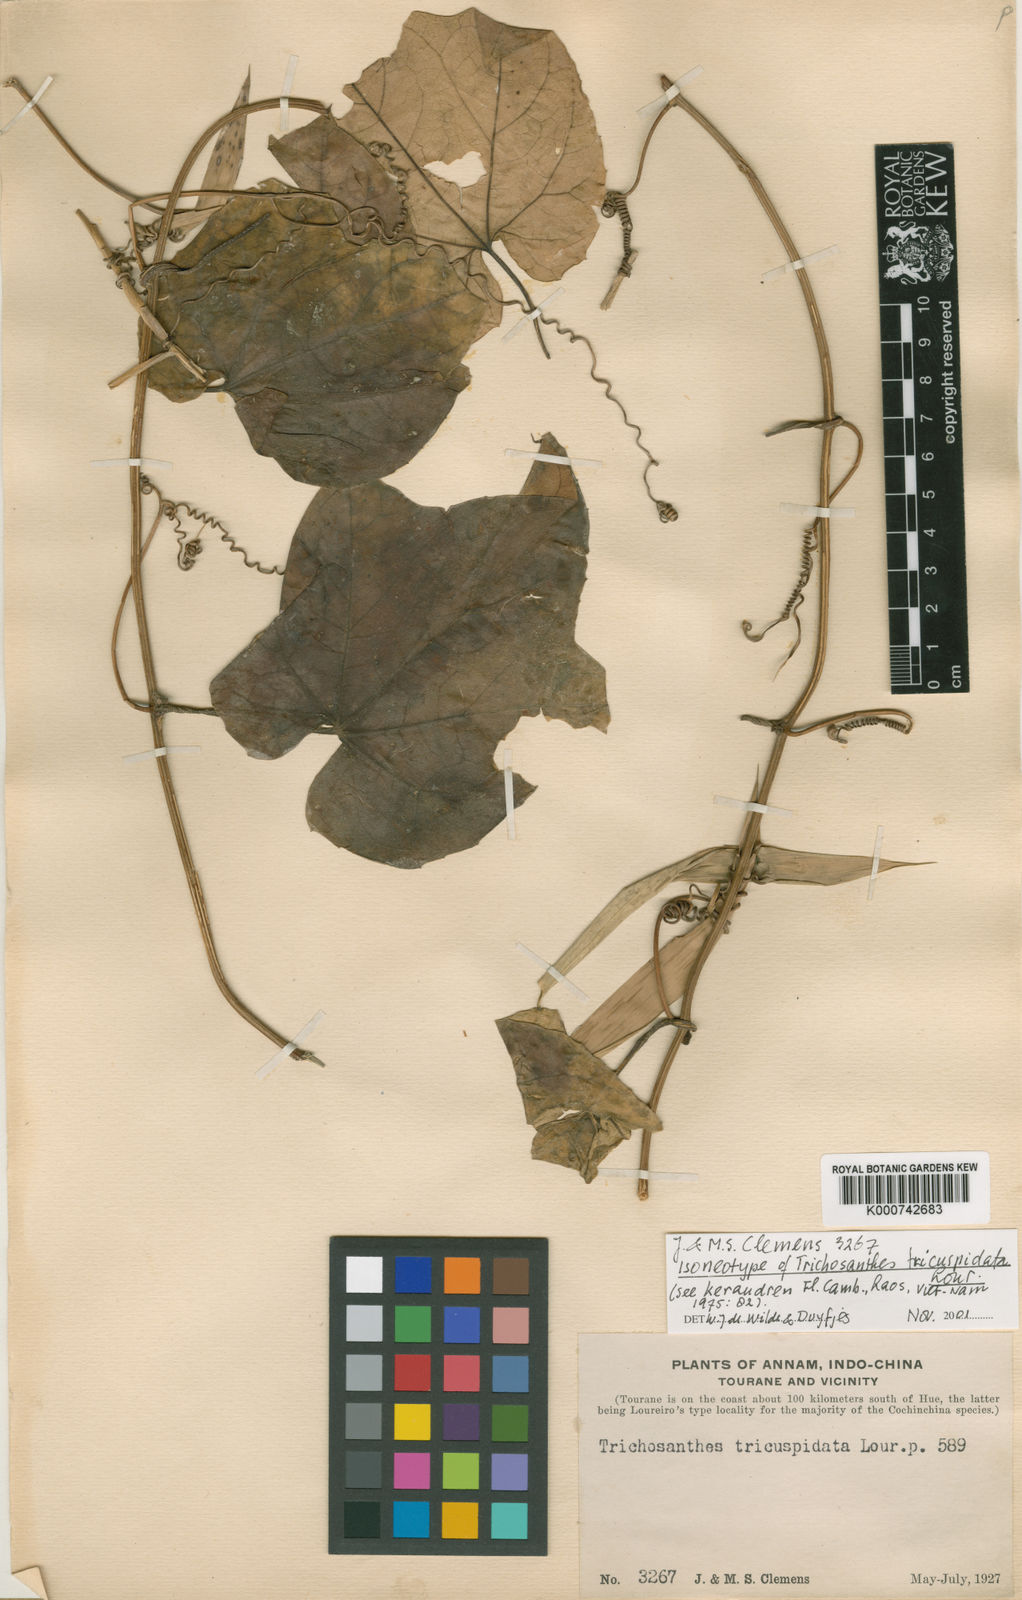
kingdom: Plantae
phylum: Tracheophyta
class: Magnoliopsida
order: Cucurbitales
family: Cucurbitaceae
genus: Trichosanthes
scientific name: Trichosanthes tricuspidata
